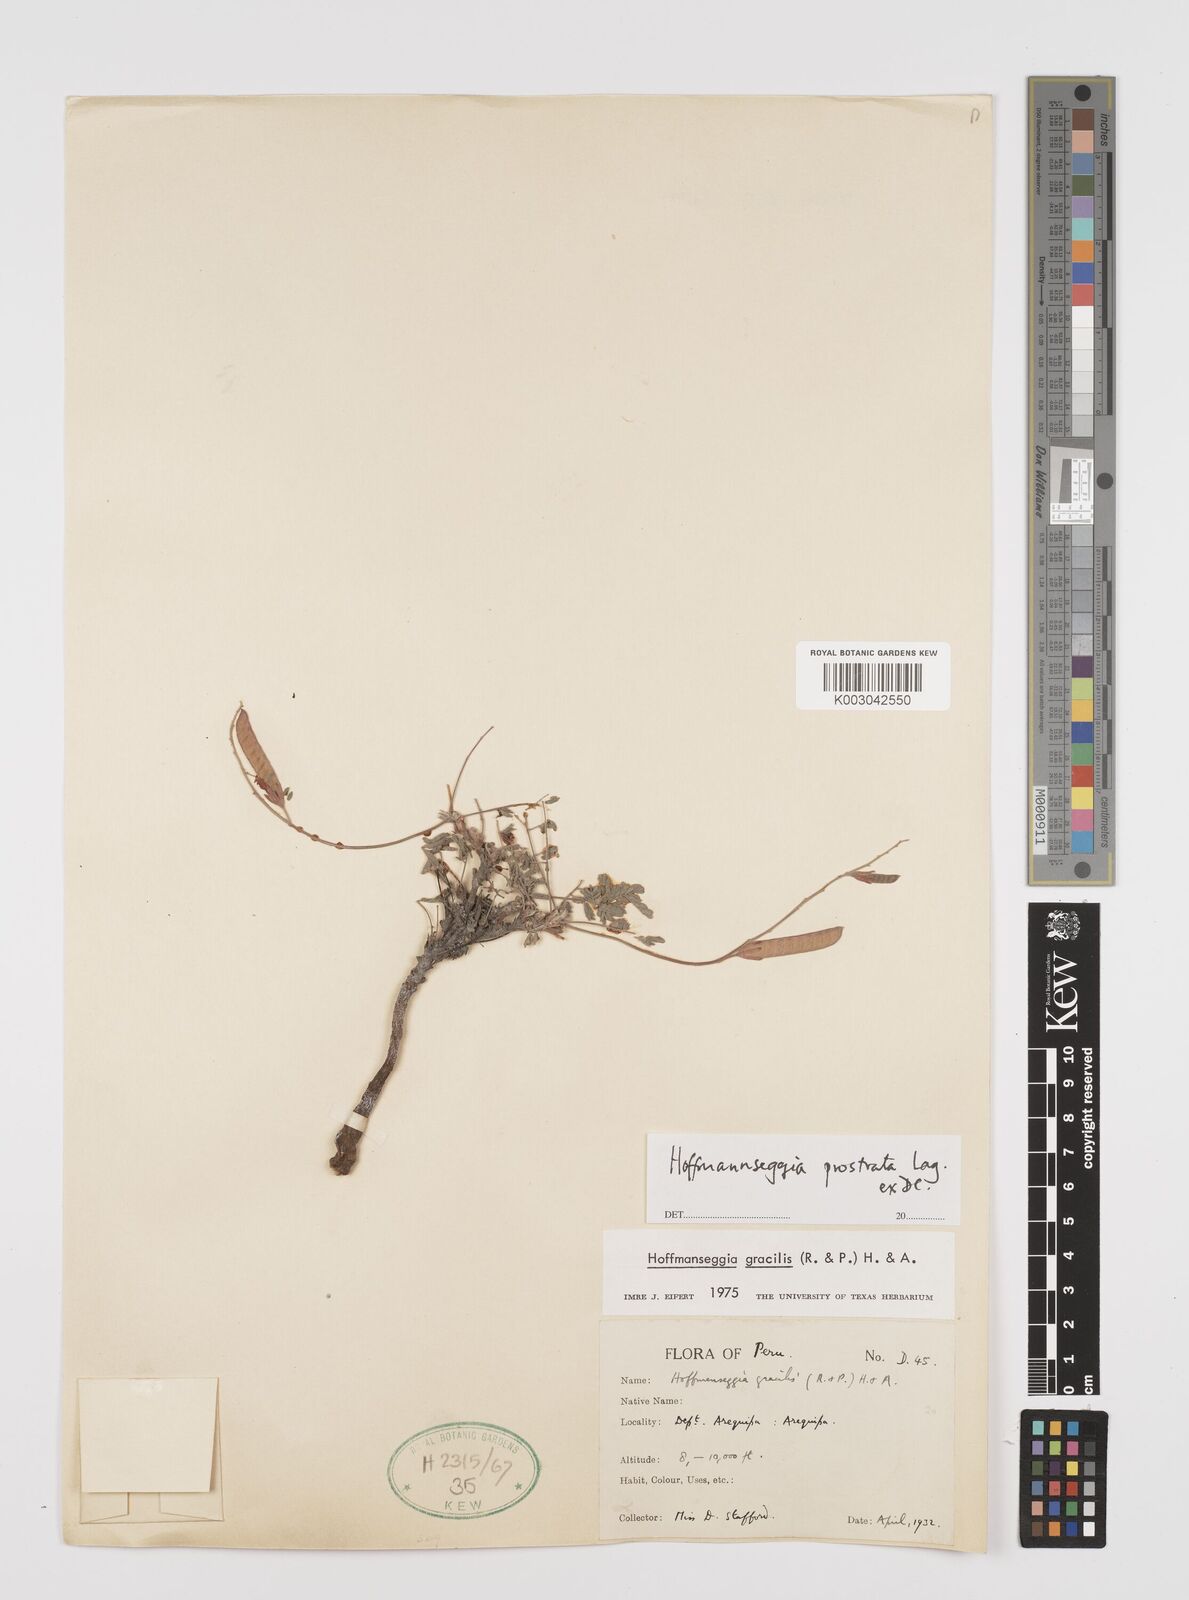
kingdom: Plantae
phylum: Tracheophyta
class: Magnoliopsida
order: Fabales
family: Fabaceae
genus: Hoffmannseggia
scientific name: Hoffmannseggia prostrata
